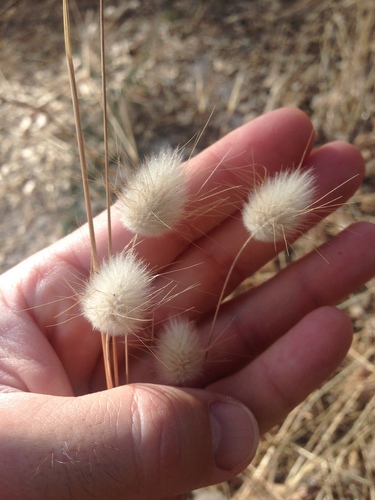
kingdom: Plantae
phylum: Tracheophyta
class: Liliopsida
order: Poales
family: Poaceae
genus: Lagurus
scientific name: Lagurus ovatus
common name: Hare's-tail
